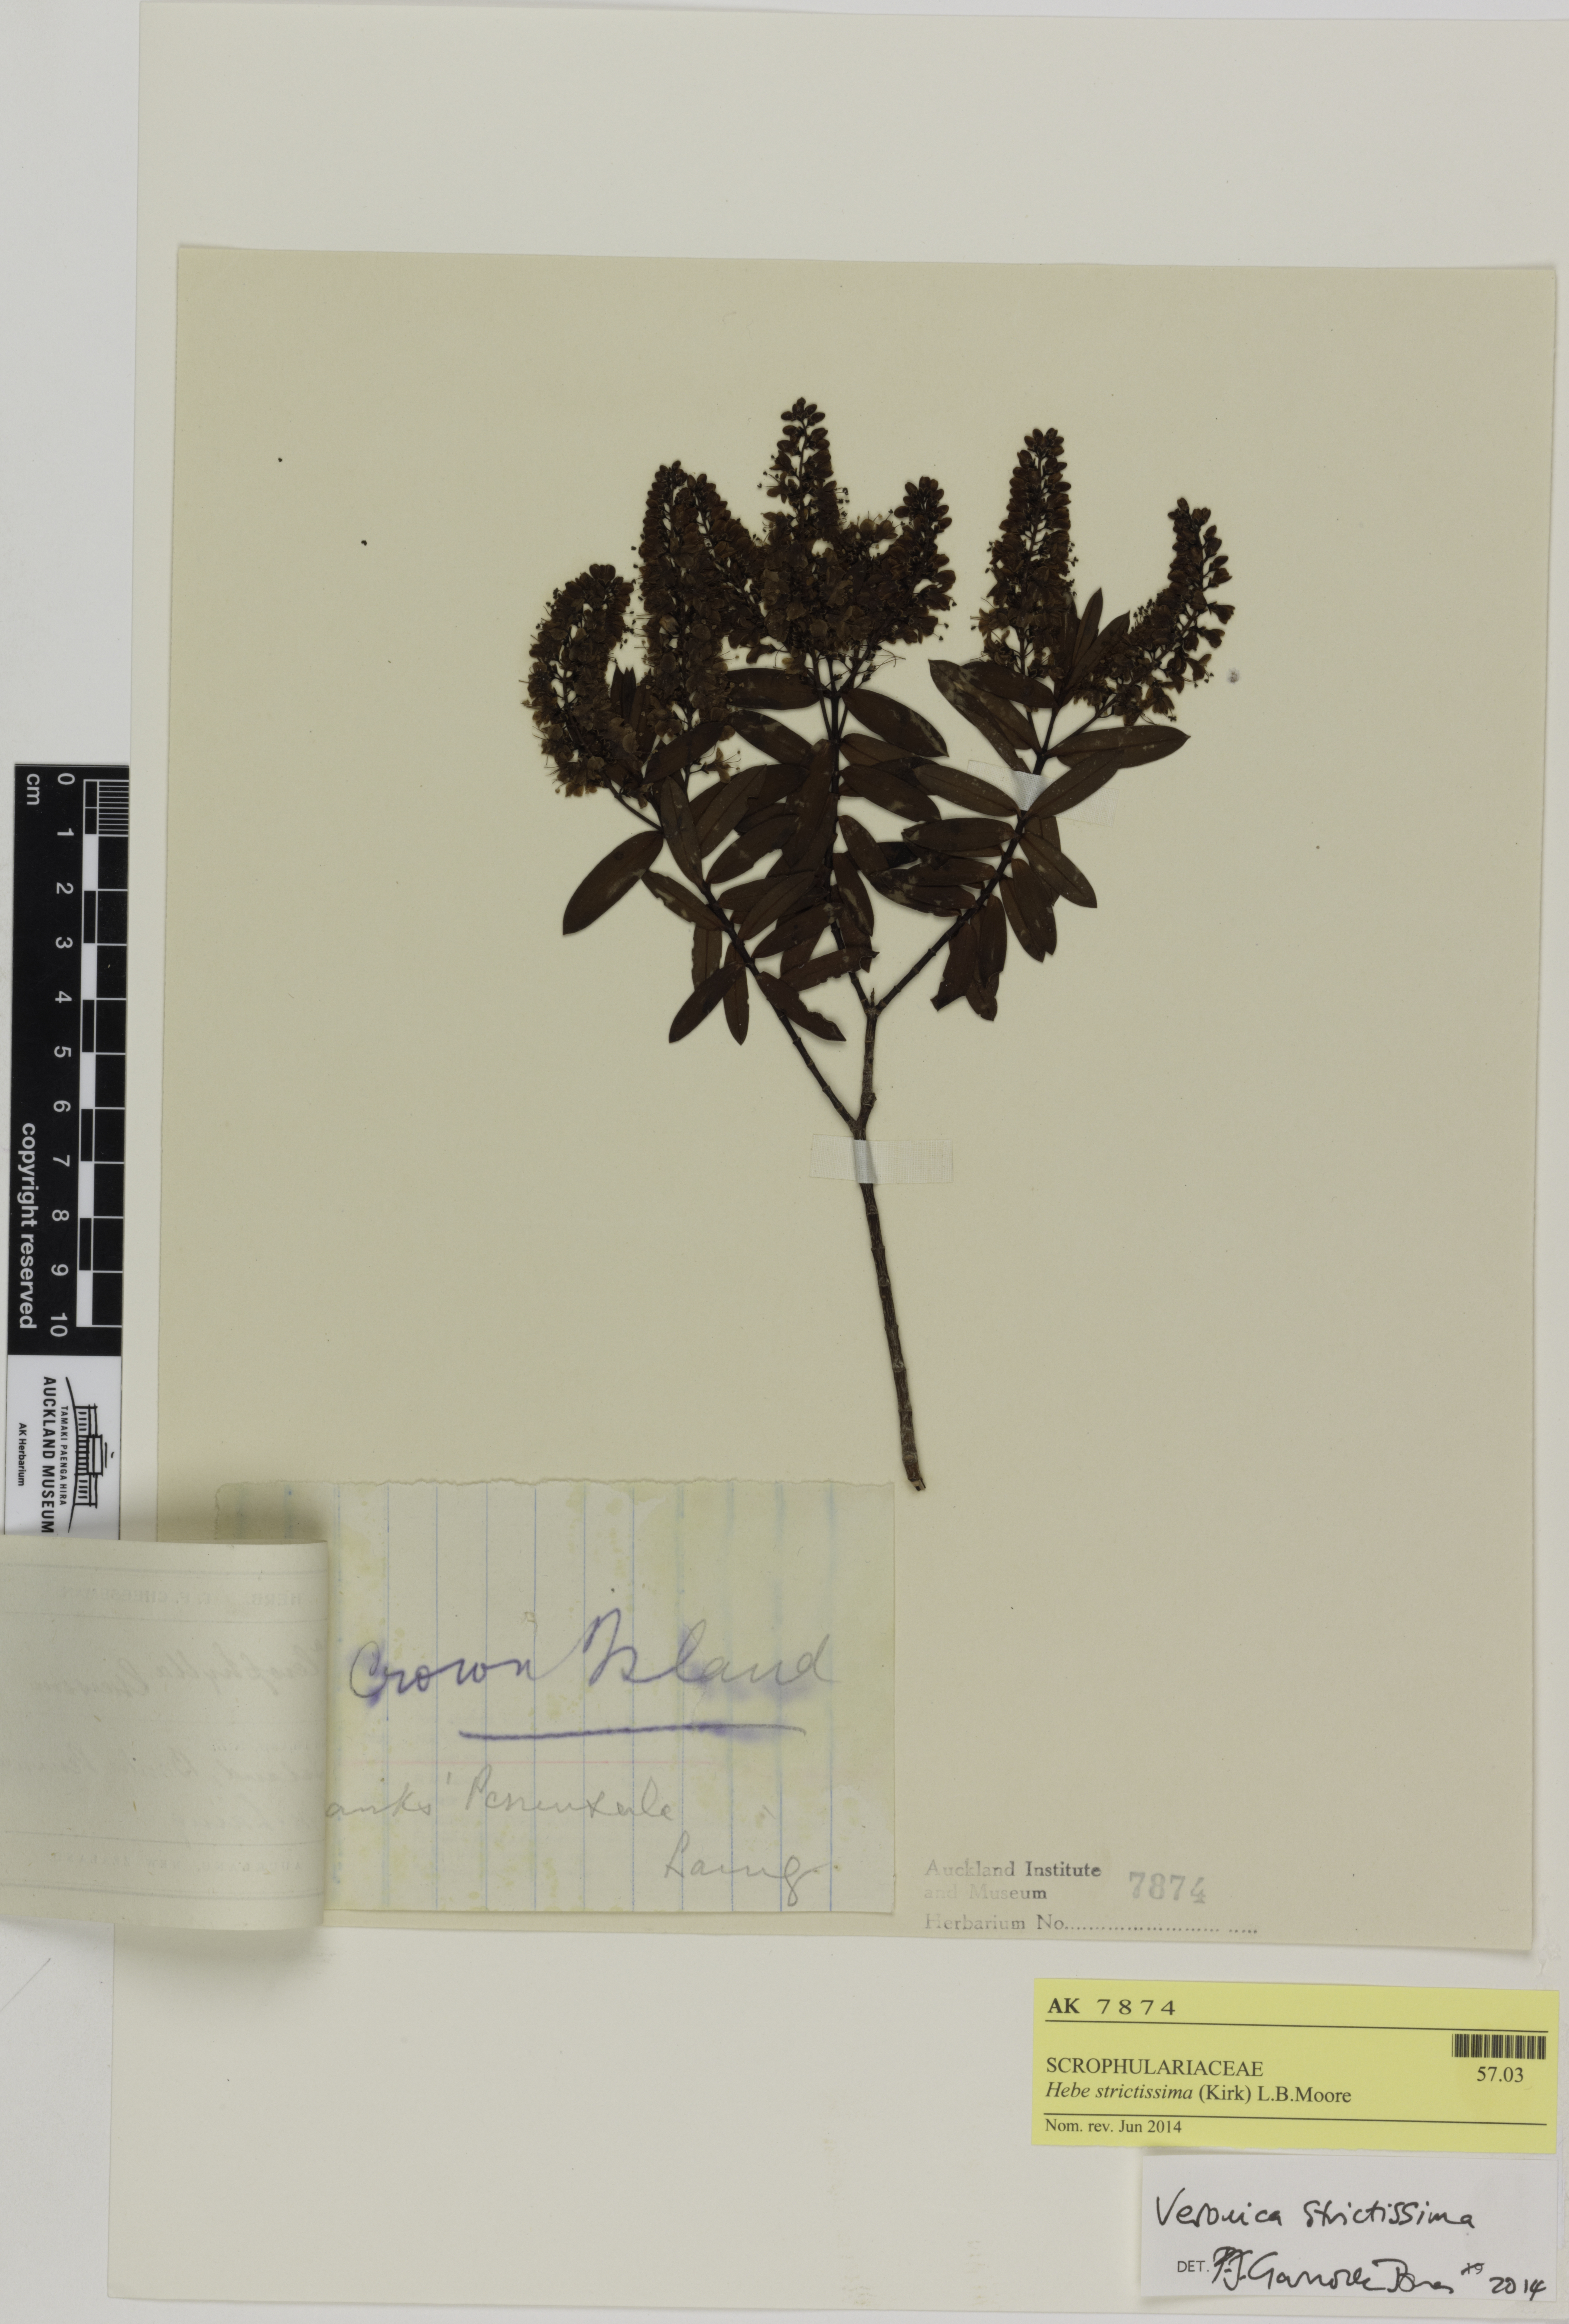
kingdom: Plantae
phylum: Tracheophyta
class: Magnoliopsida
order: Lamiales
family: Plantaginaceae
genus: Veronica
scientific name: Veronica strictissima
